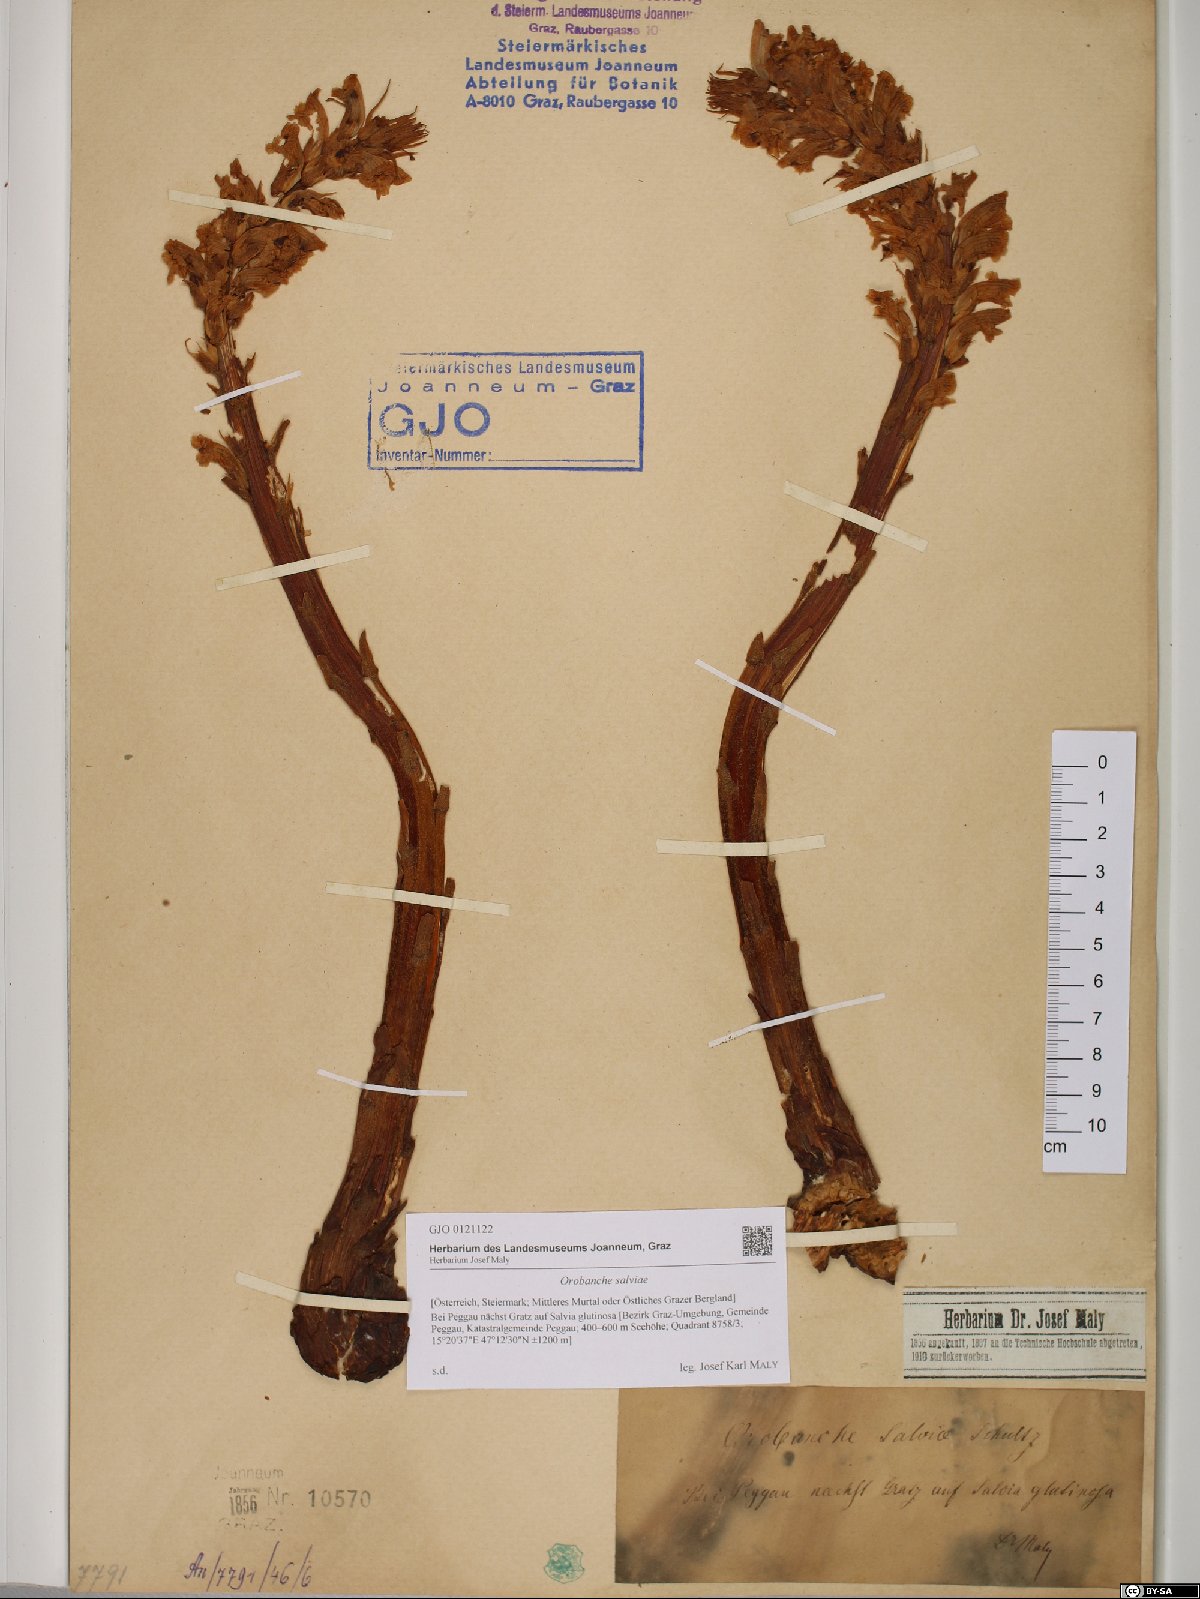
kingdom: Plantae
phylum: Tracheophyta
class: Magnoliopsida
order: Lamiales
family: Orobanchaceae
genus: Orobanche
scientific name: Orobanche salviae
